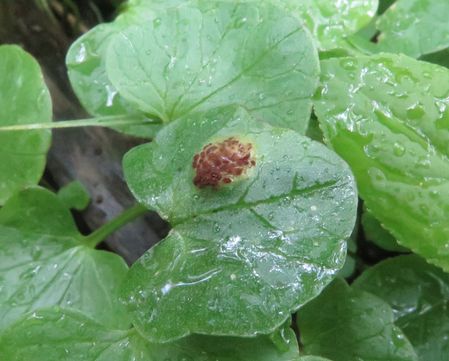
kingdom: Fungi
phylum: Basidiomycota
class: Pucciniomycetes
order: Pucciniales
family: Pucciniaceae
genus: Uromyces
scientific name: Uromyces ficariae
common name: vorterod-encellerust
